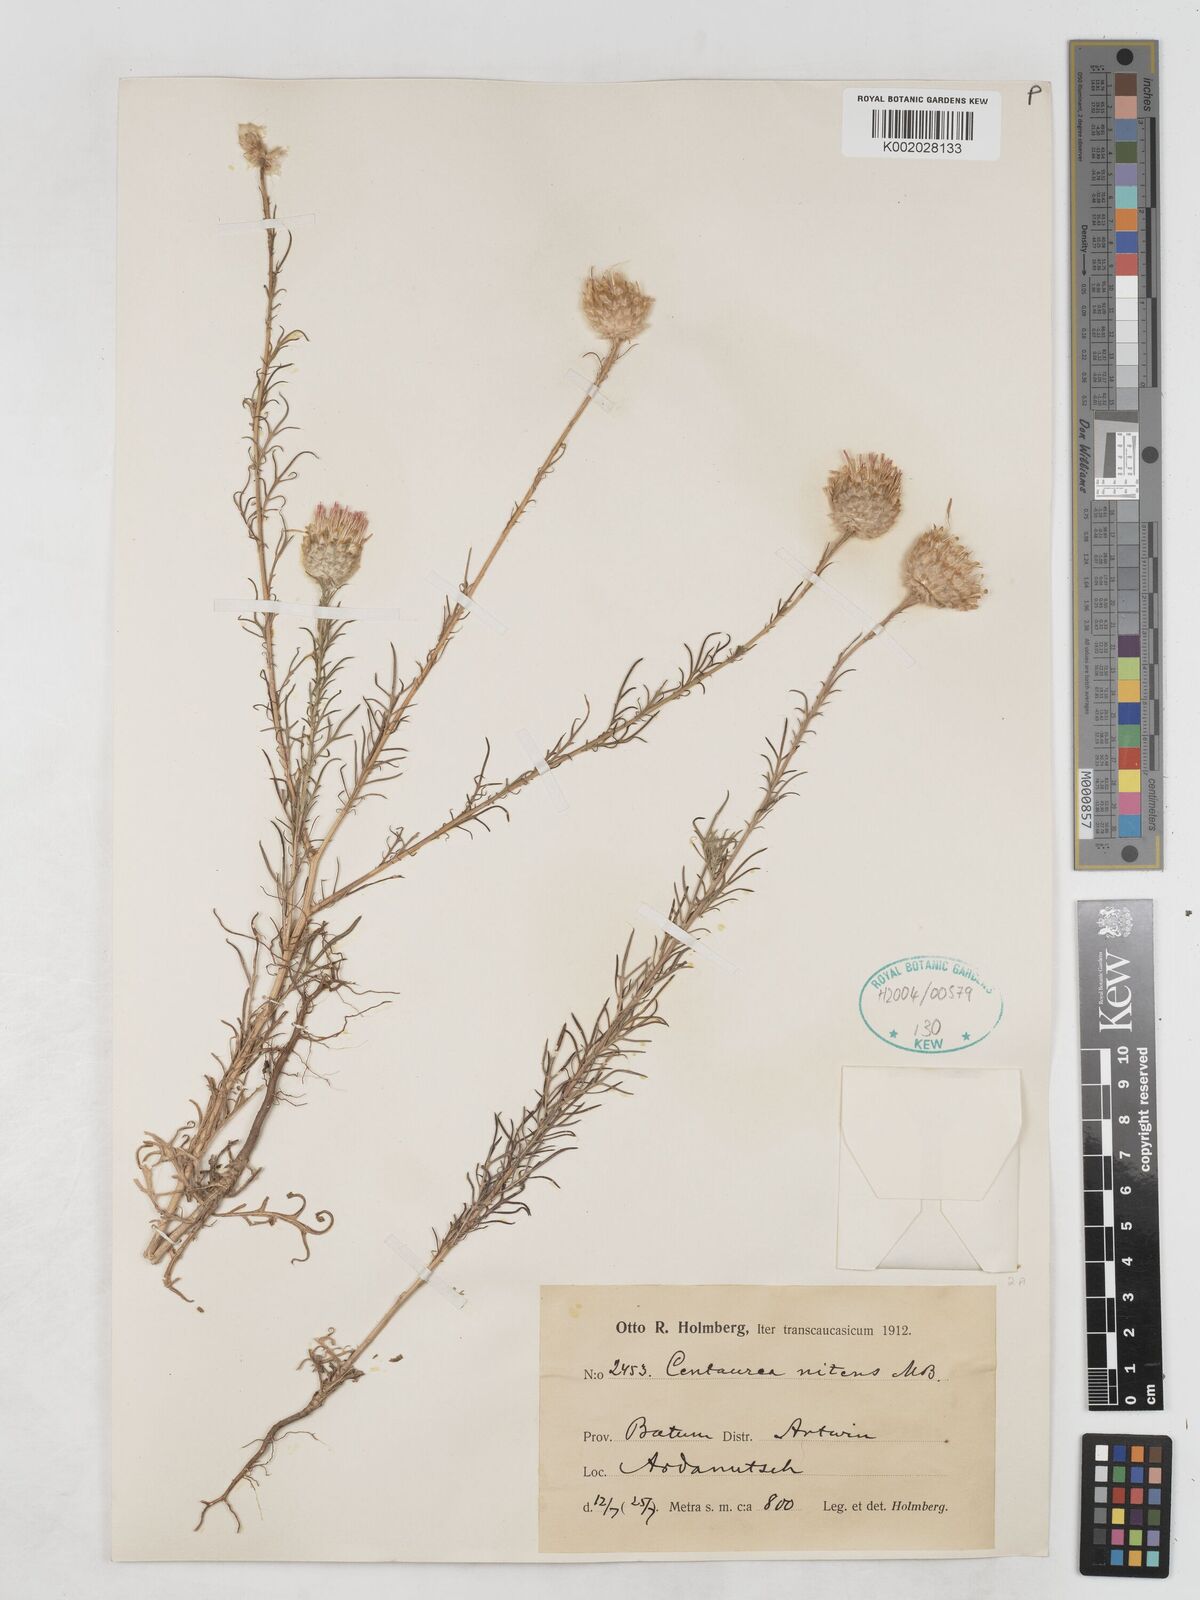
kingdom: Plantae
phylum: Tracheophyta
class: Magnoliopsida
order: Asterales
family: Asteraceae
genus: Callicephalus
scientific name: Callicephalus nitens
